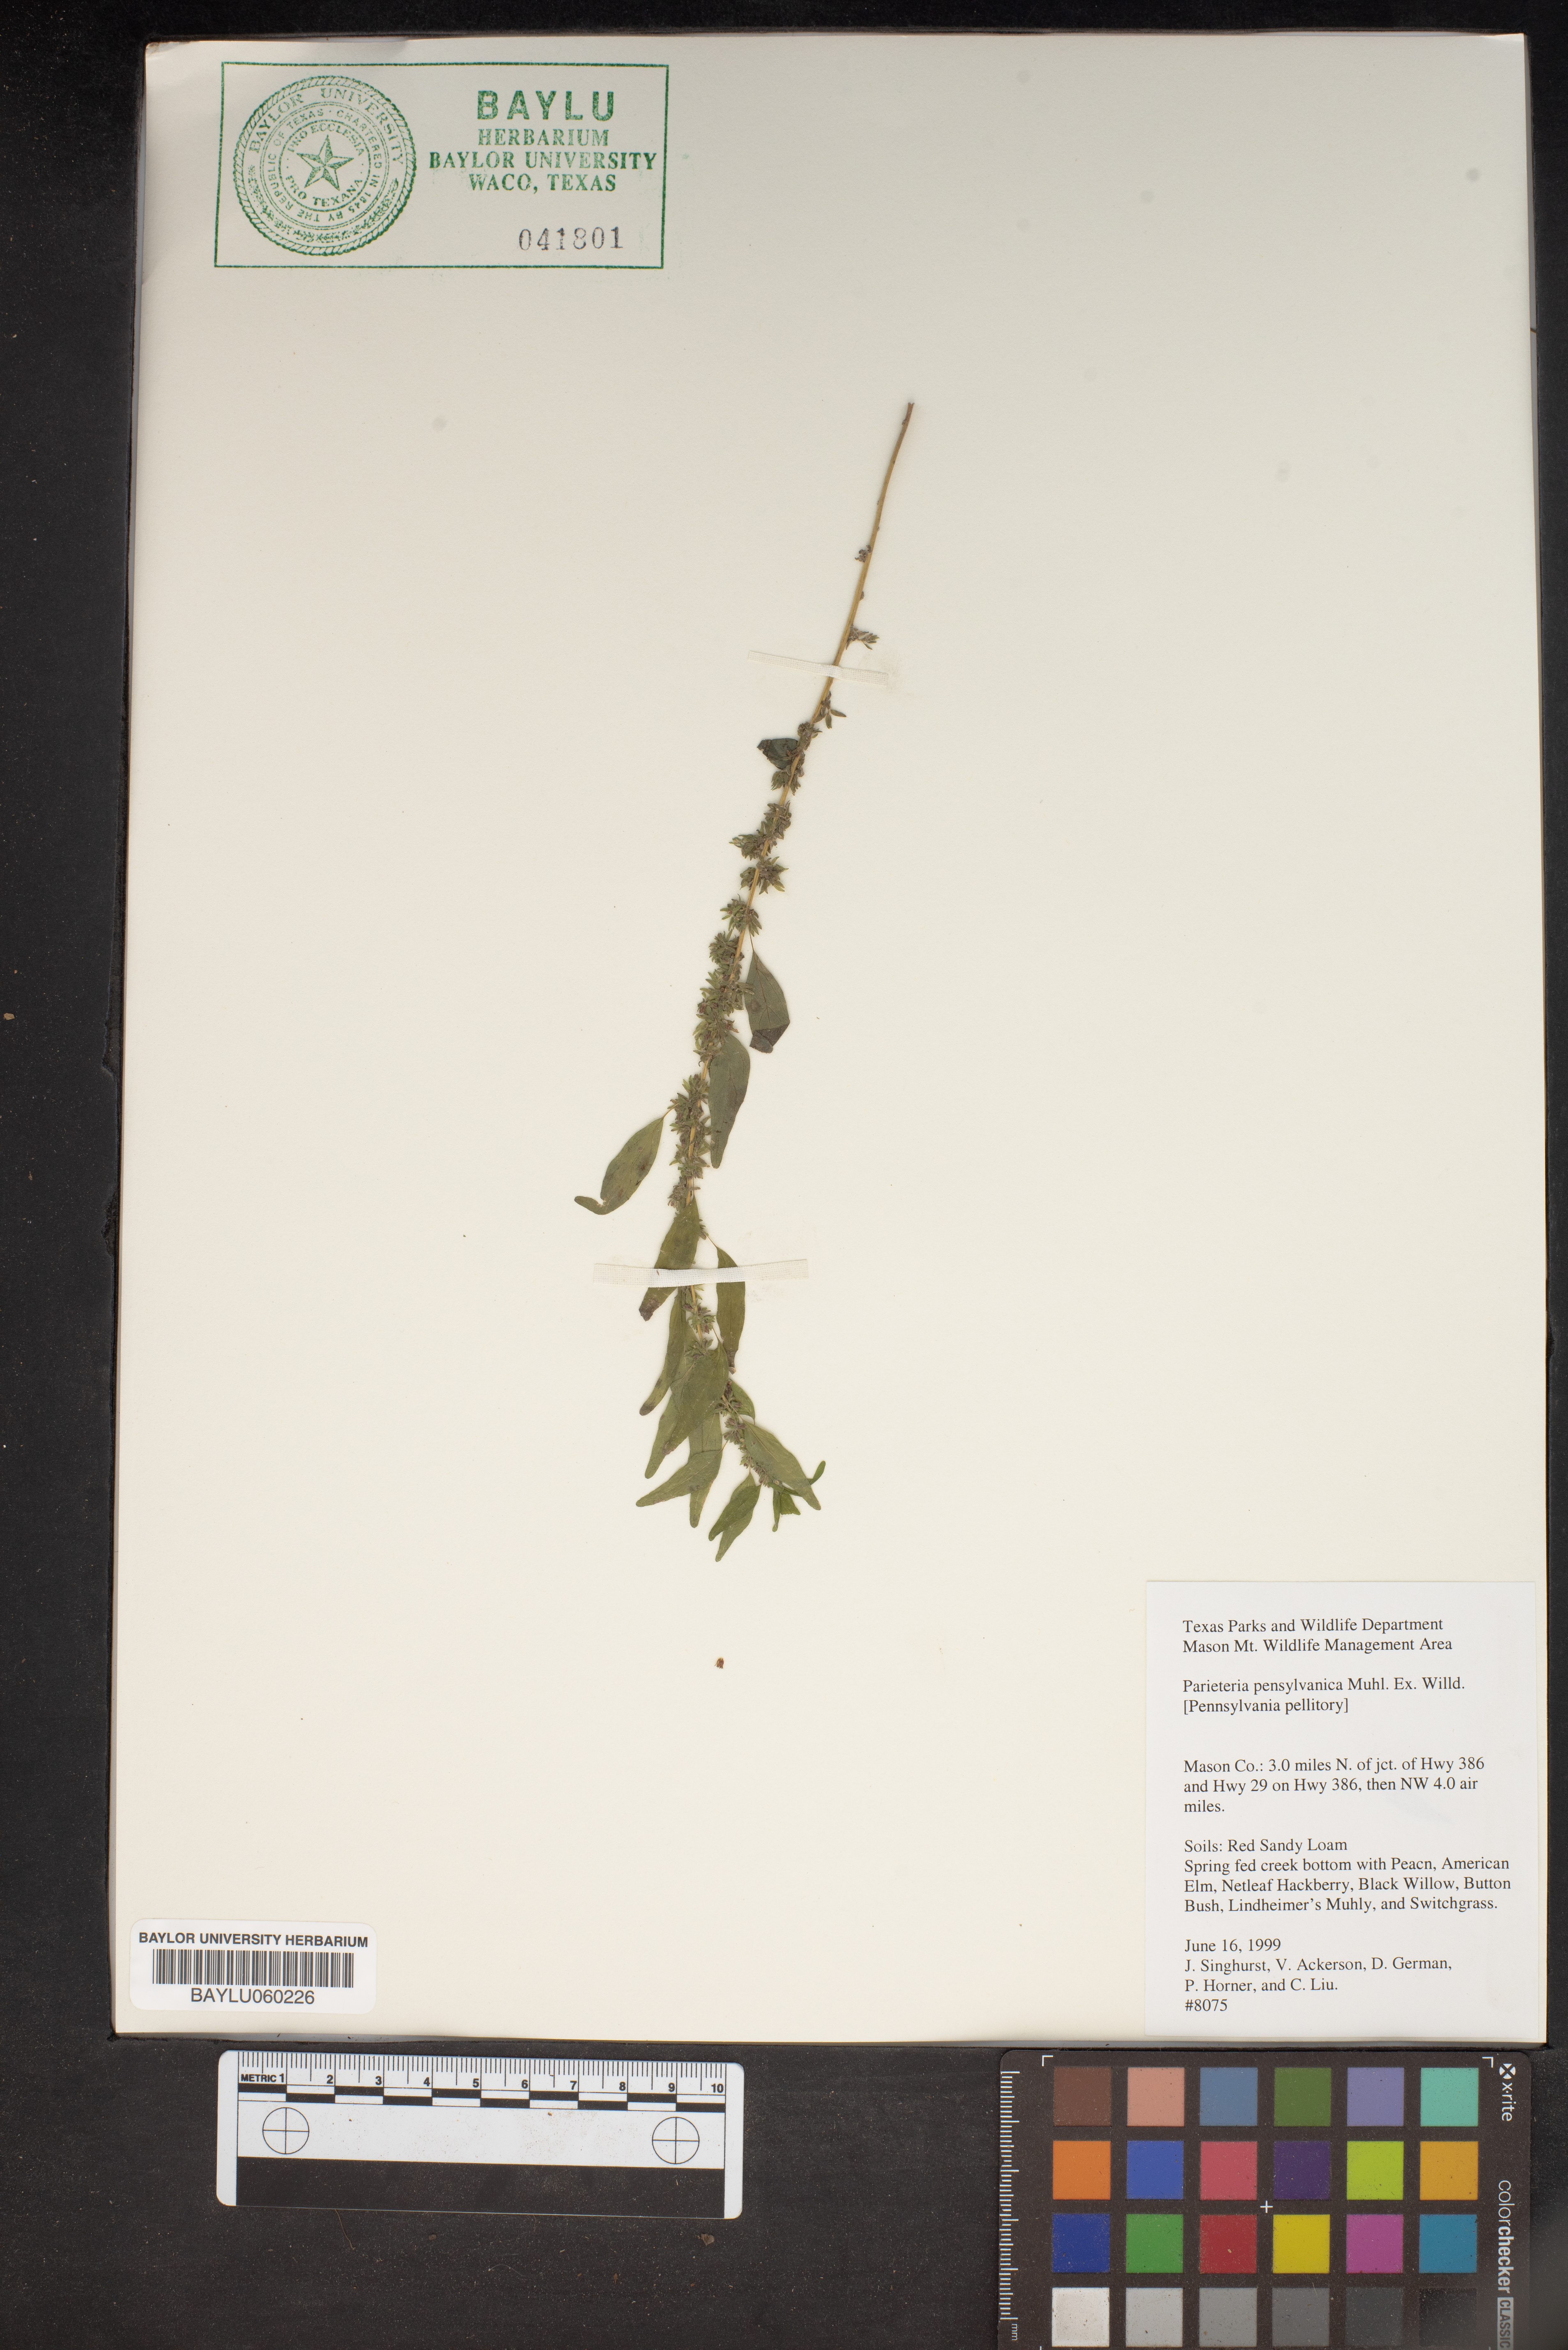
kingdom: Plantae
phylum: Tracheophyta
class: Magnoliopsida
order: Rosales
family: Urticaceae
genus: Parietaria
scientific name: Parietaria pensylvanica
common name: Pennsylvania pellitory
